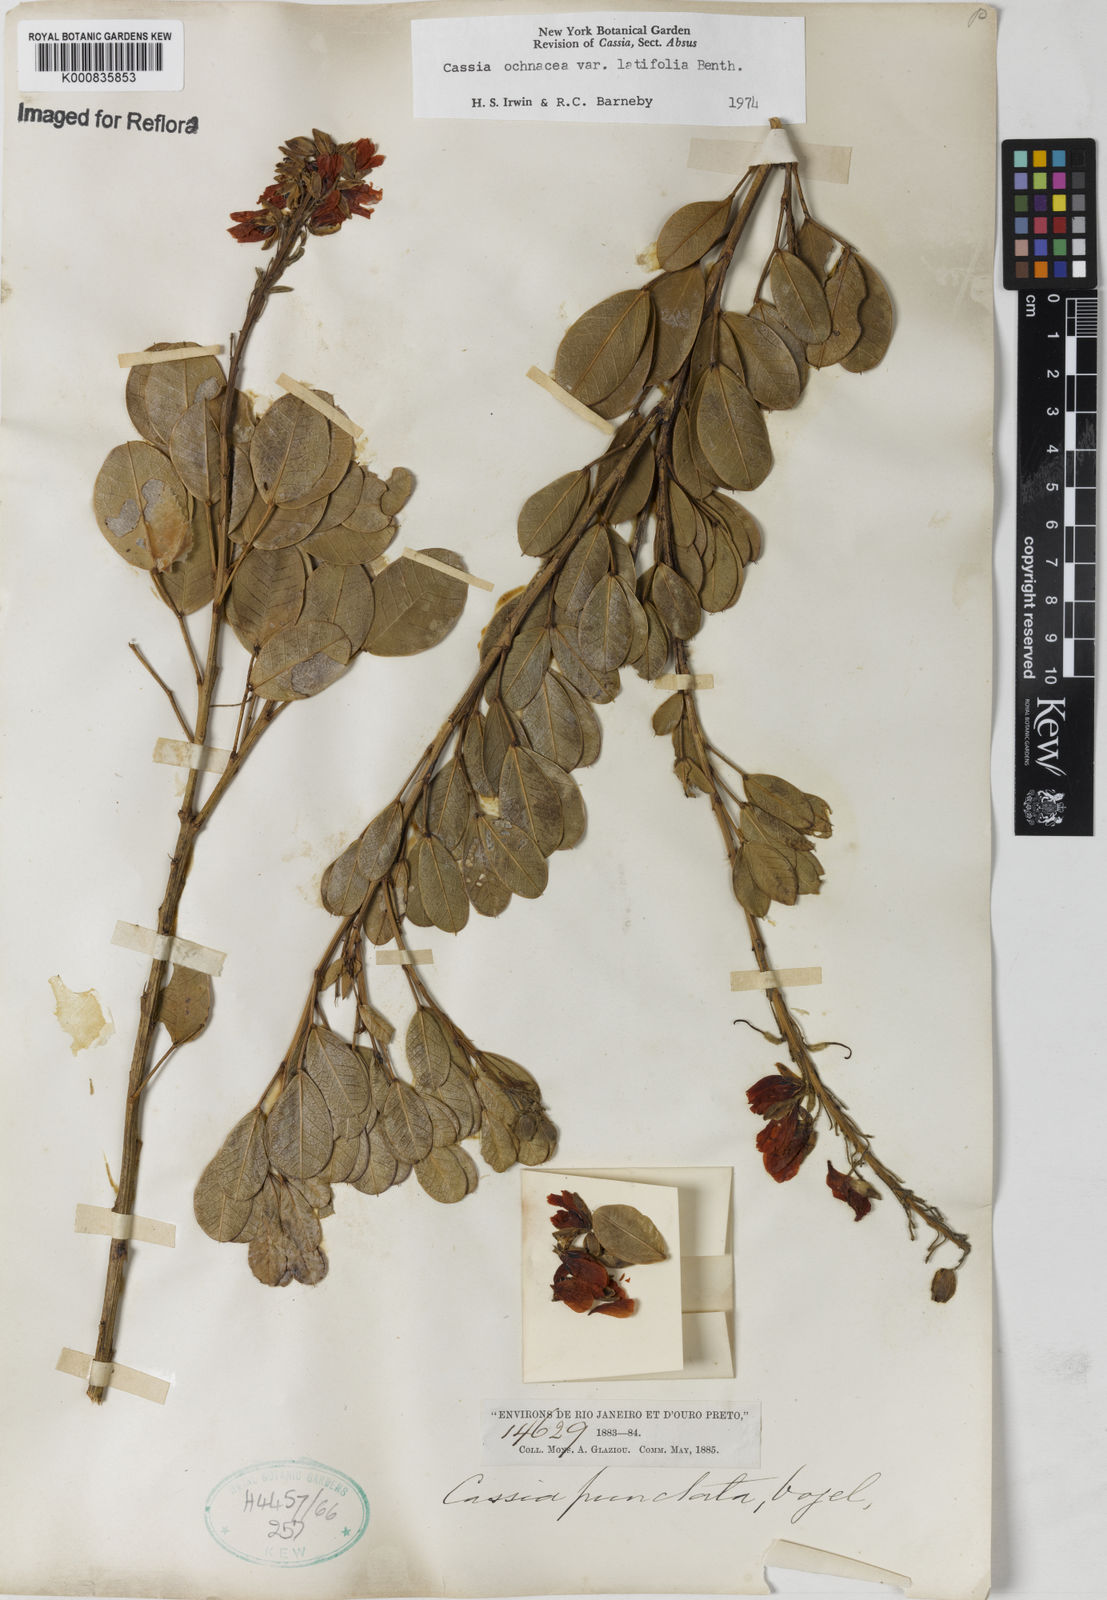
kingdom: Plantae
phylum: Tracheophyta
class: Magnoliopsida
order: Fabales
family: Fabaceae
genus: Chamaecrista
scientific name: Chamaecrista ochnacea
